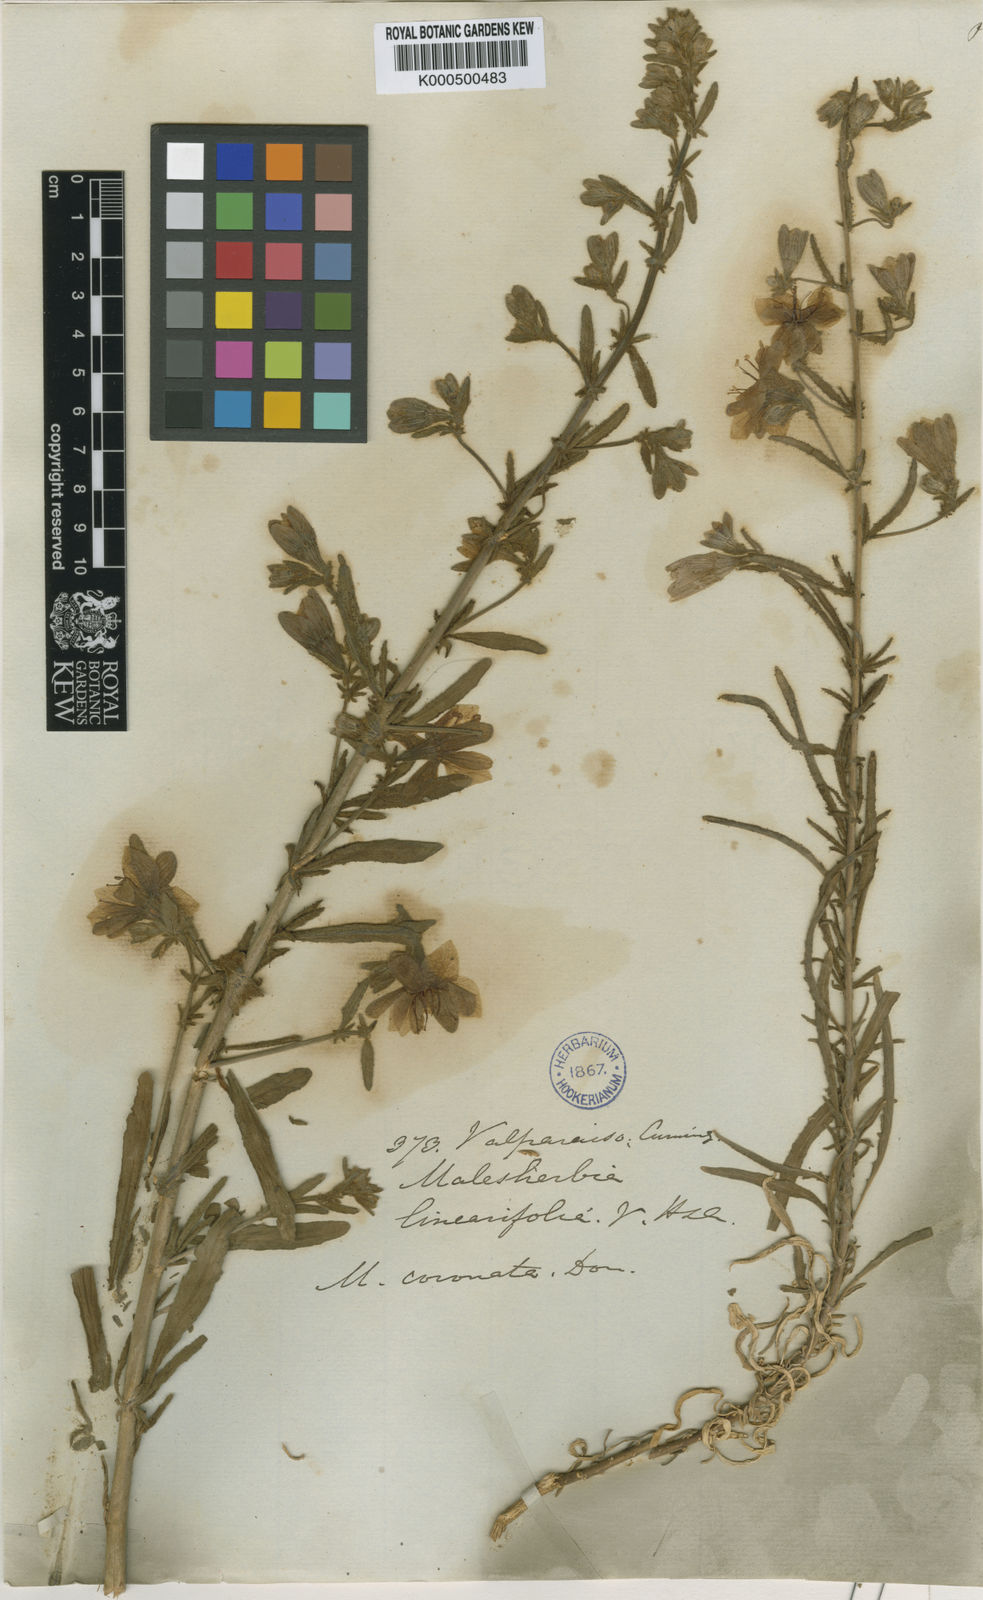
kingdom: Plantae
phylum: Tracheophyta
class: Magnoliopsida
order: Malpighiales
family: Malesherbiaceae
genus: Malesherbia
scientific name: Malesherbia
